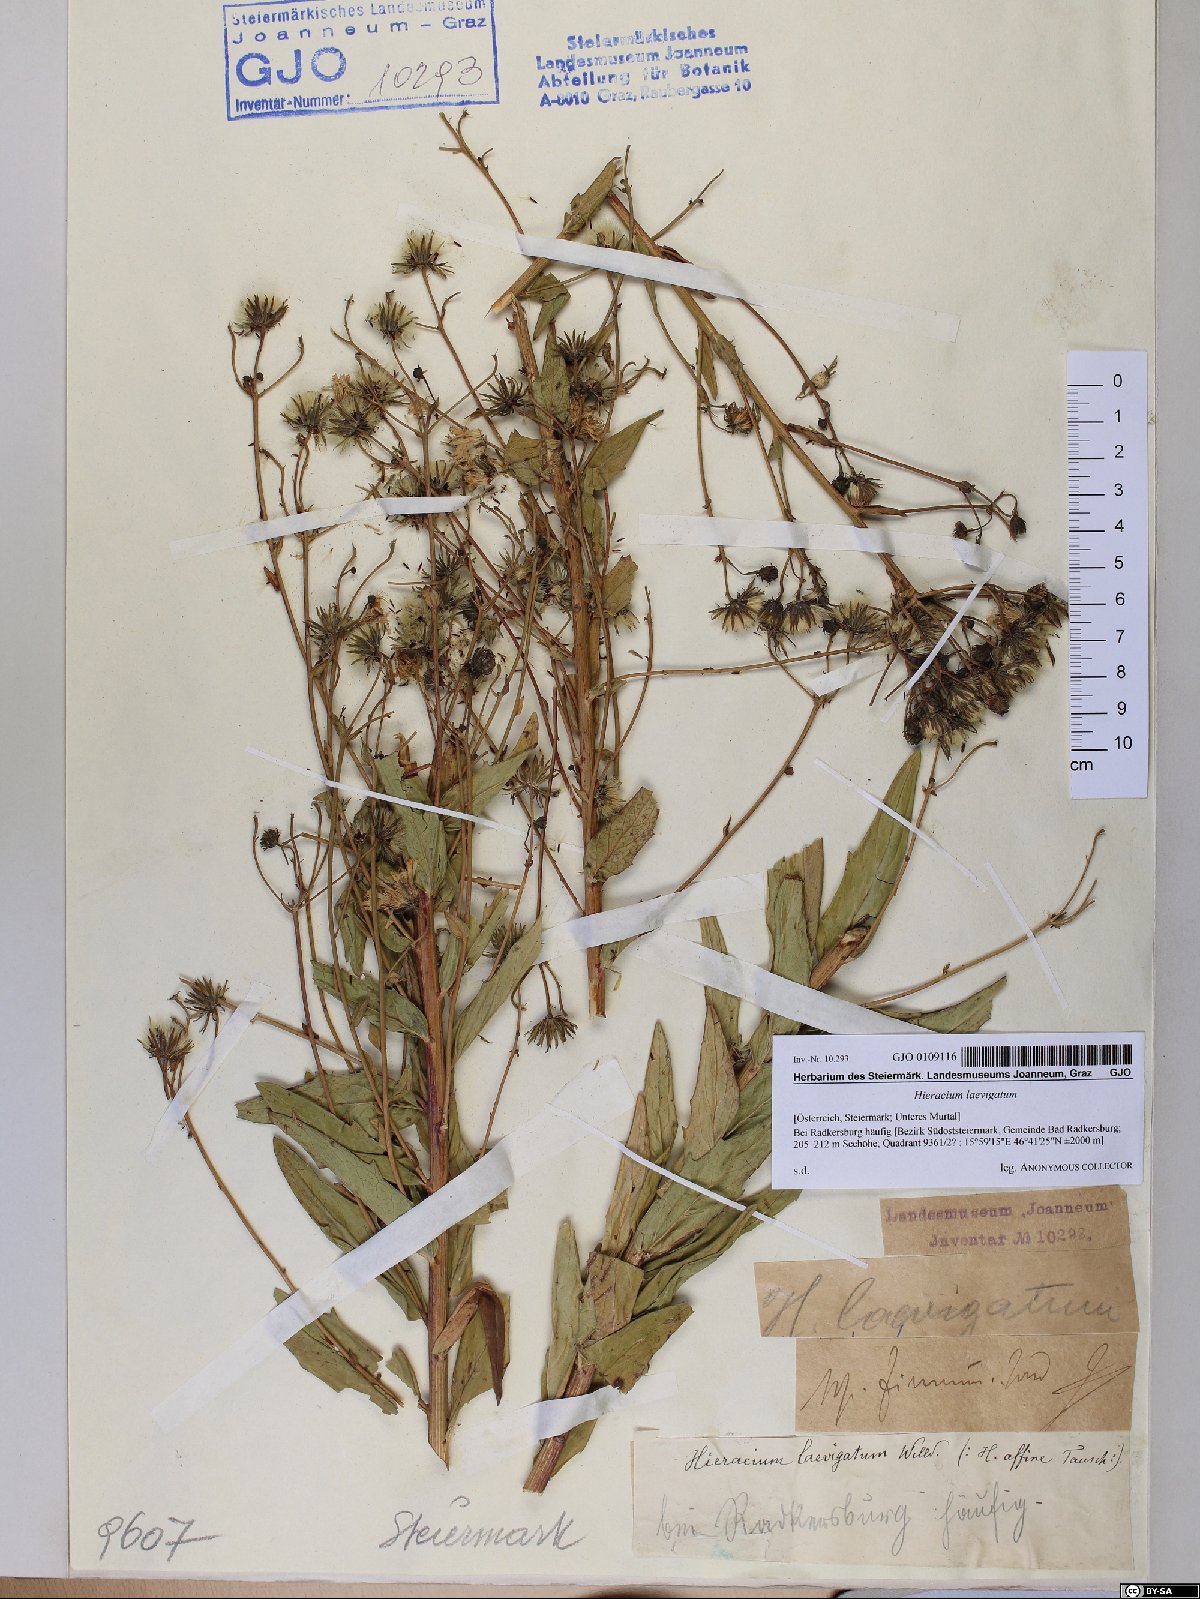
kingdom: Plantae
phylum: Tracheophyta
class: Magnoliopsida
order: Asterales
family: Asteraceae
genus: Hieracium
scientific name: Hieracium laevigatum
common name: Smooth hawkweed
